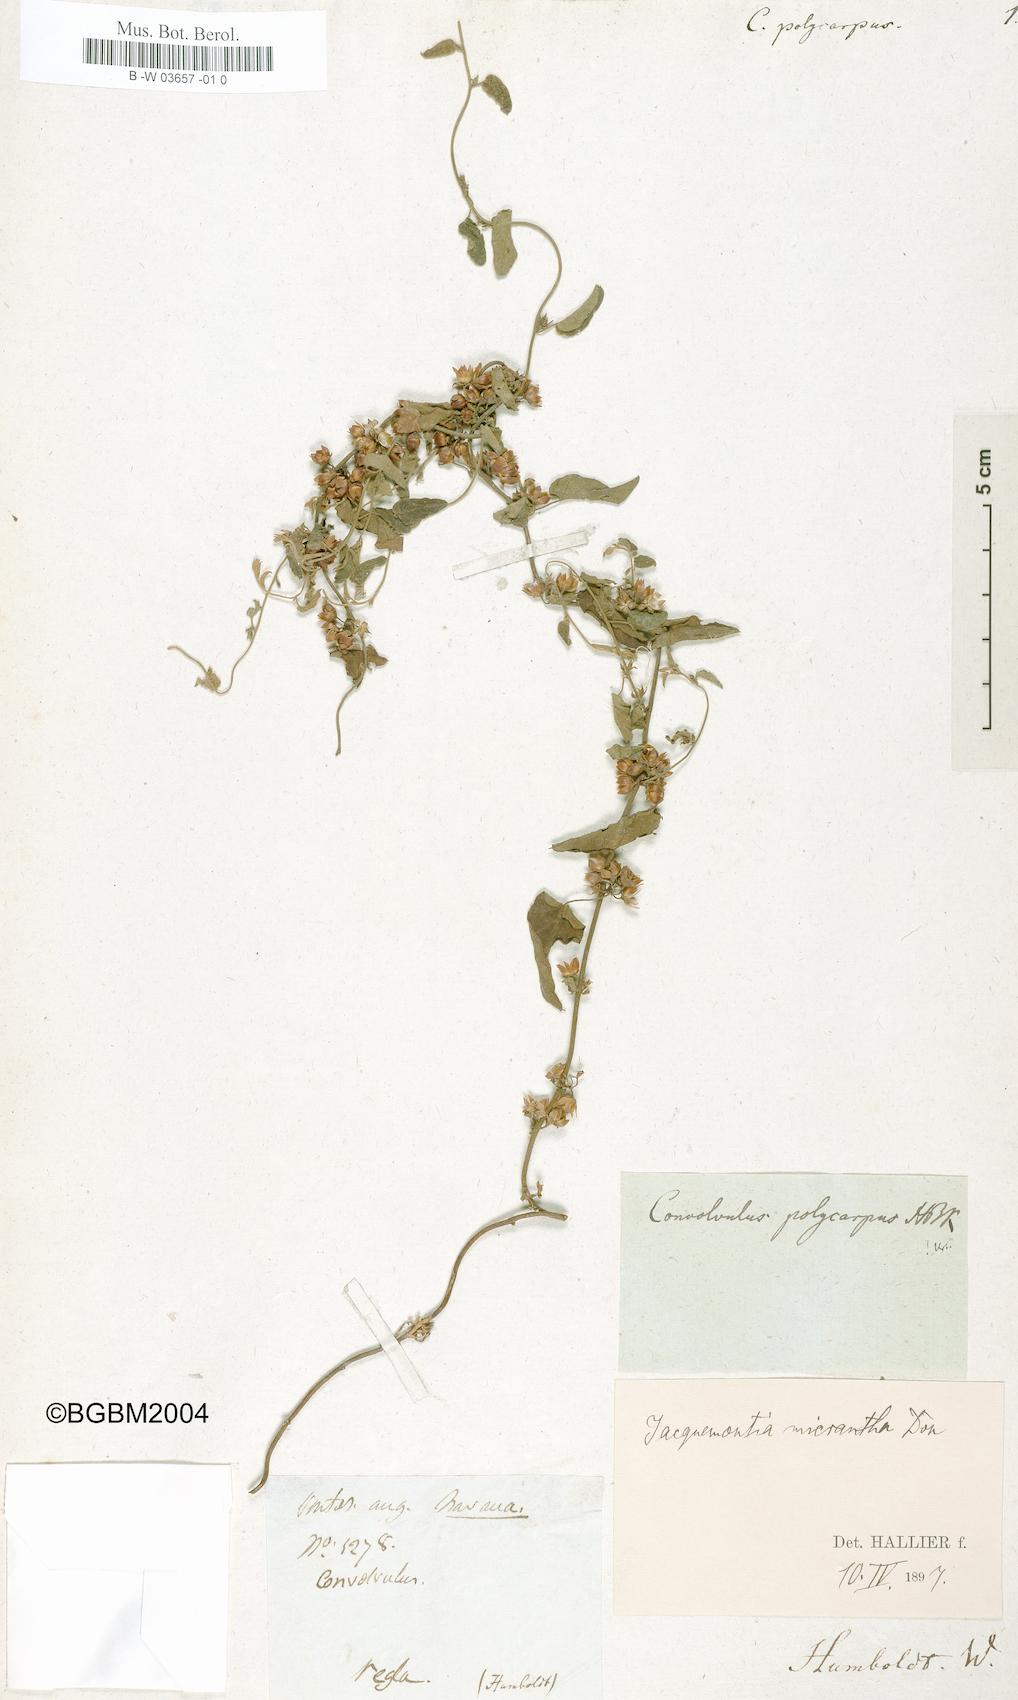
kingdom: Plantae
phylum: Tracheophyta
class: Magnoliopsida
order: Solanales
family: Convolvulaceae
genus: Jacquemontia
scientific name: Jacquemontia verticillata
